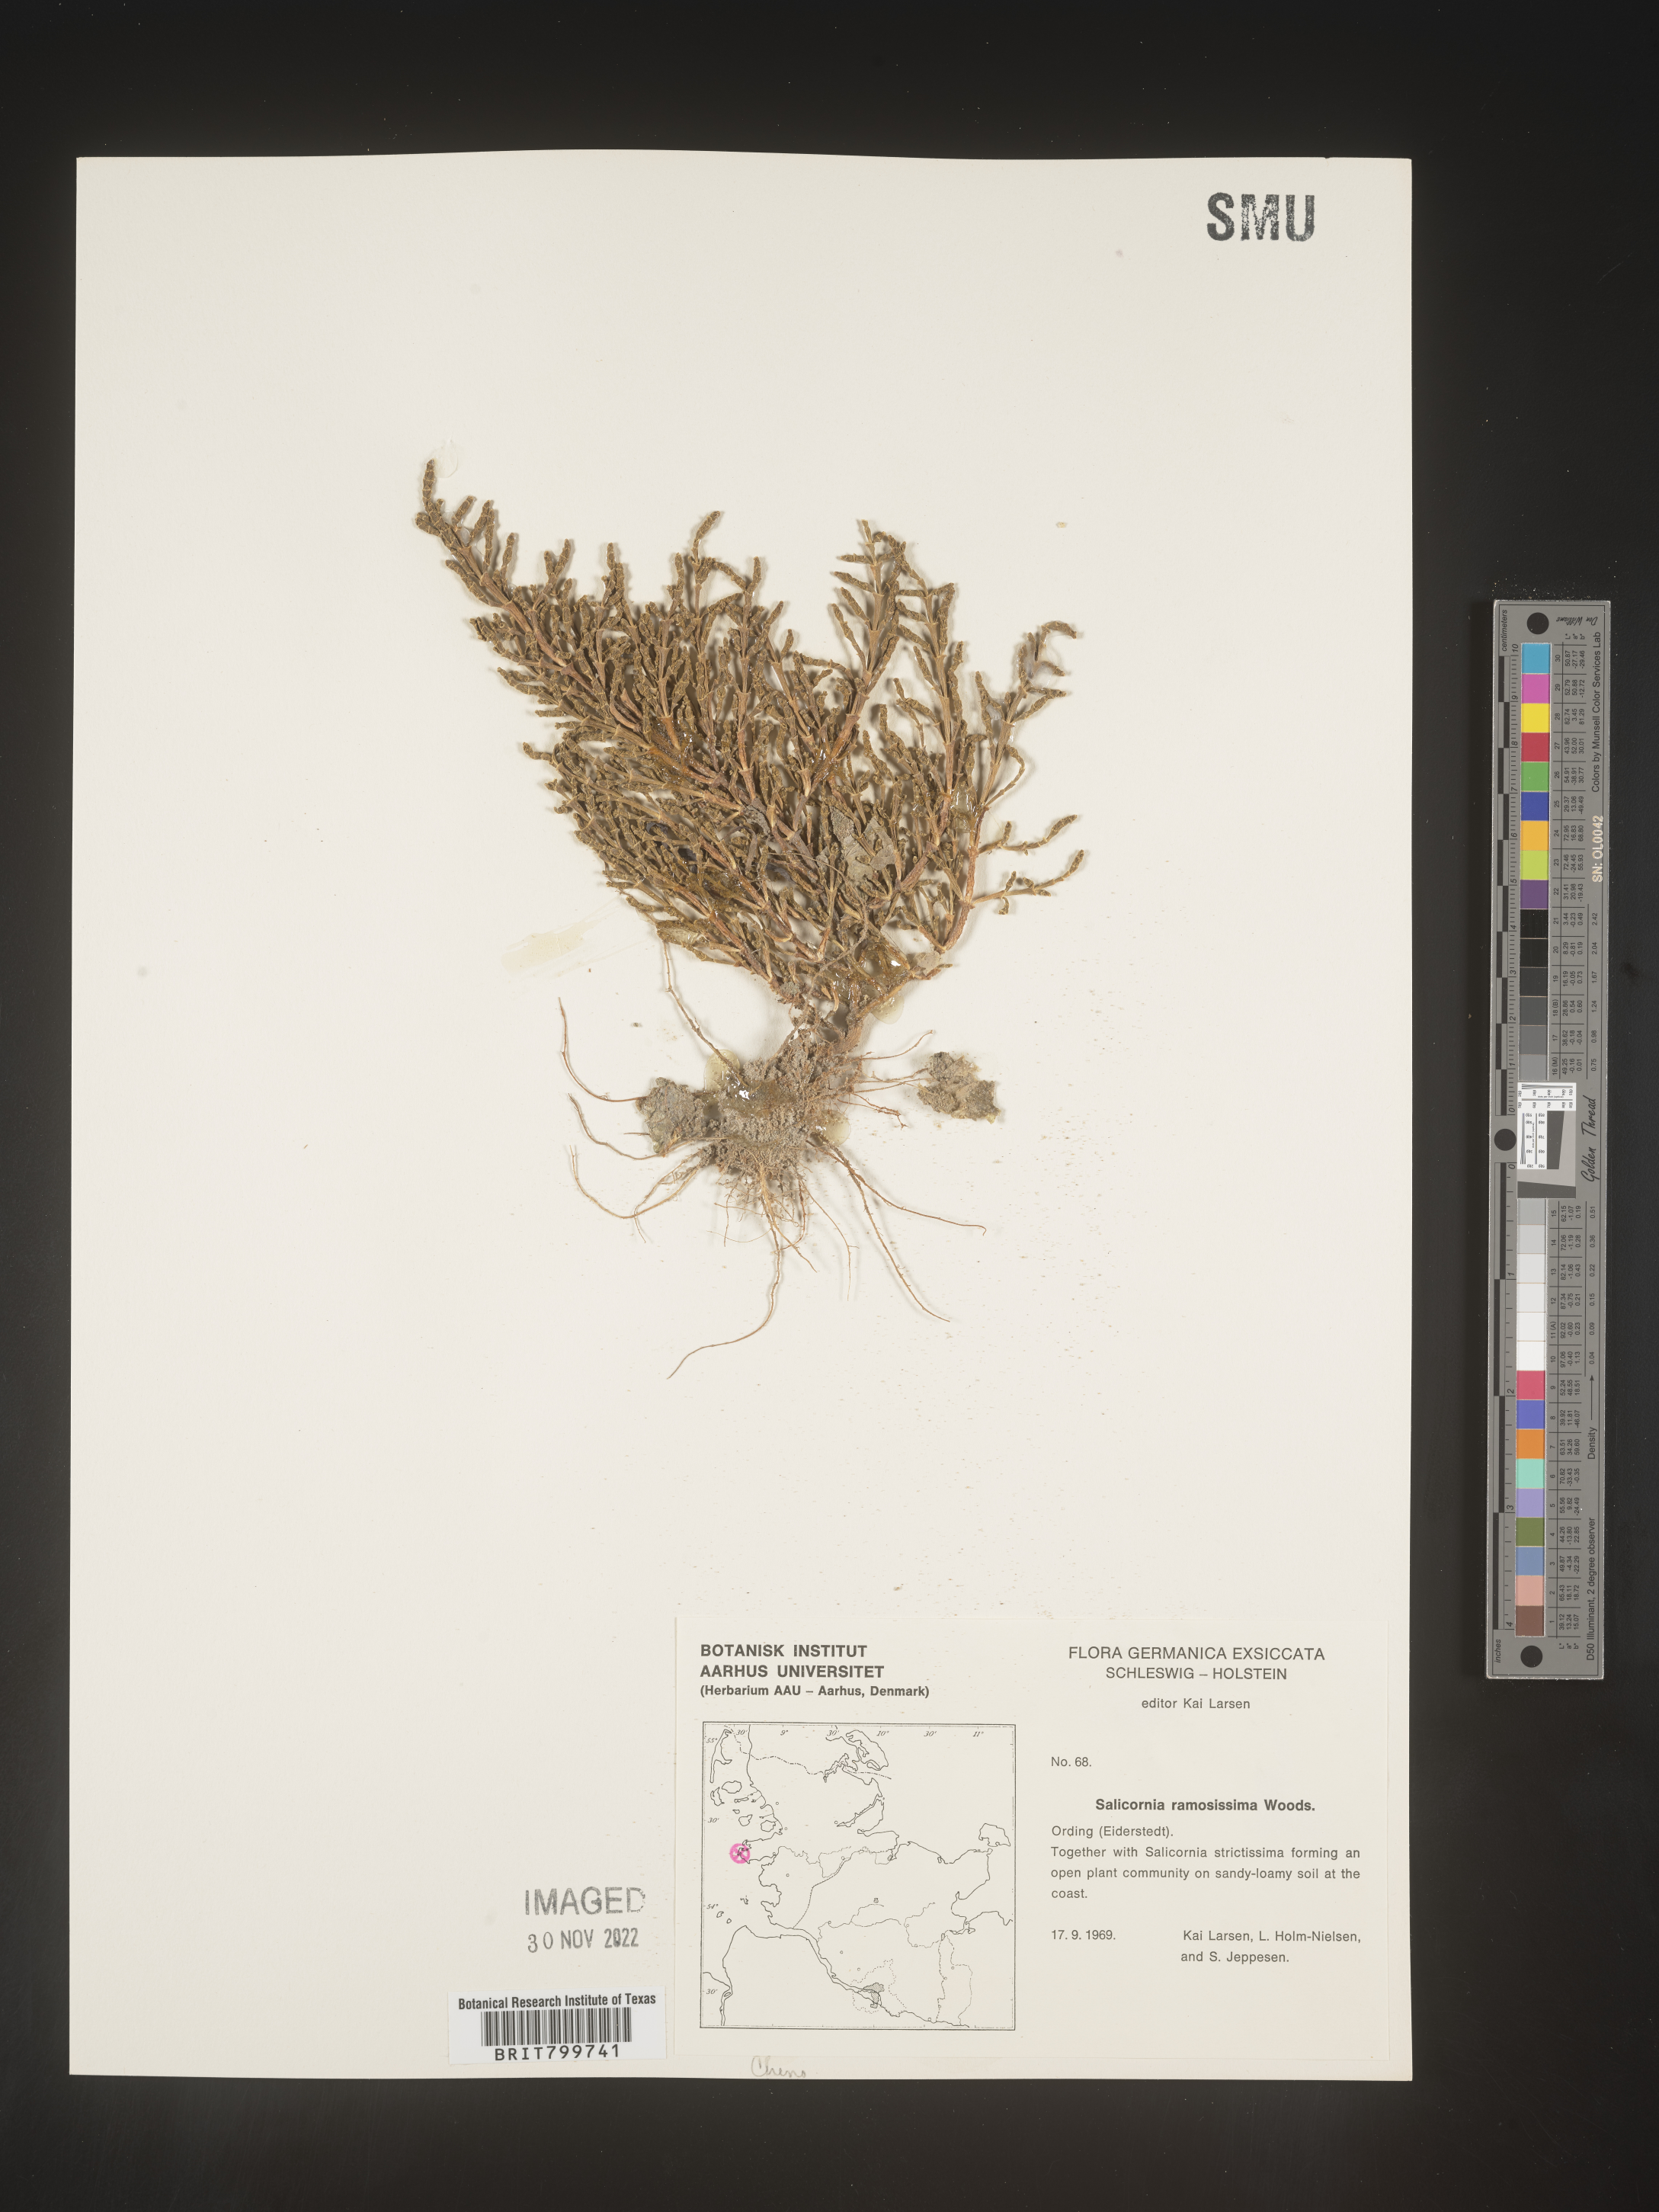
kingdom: Plantae
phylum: Tracheophyta
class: Magnoliopsida
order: Caryophyllales
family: Amaranthaceae
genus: Salicornia
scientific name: Salicornia
